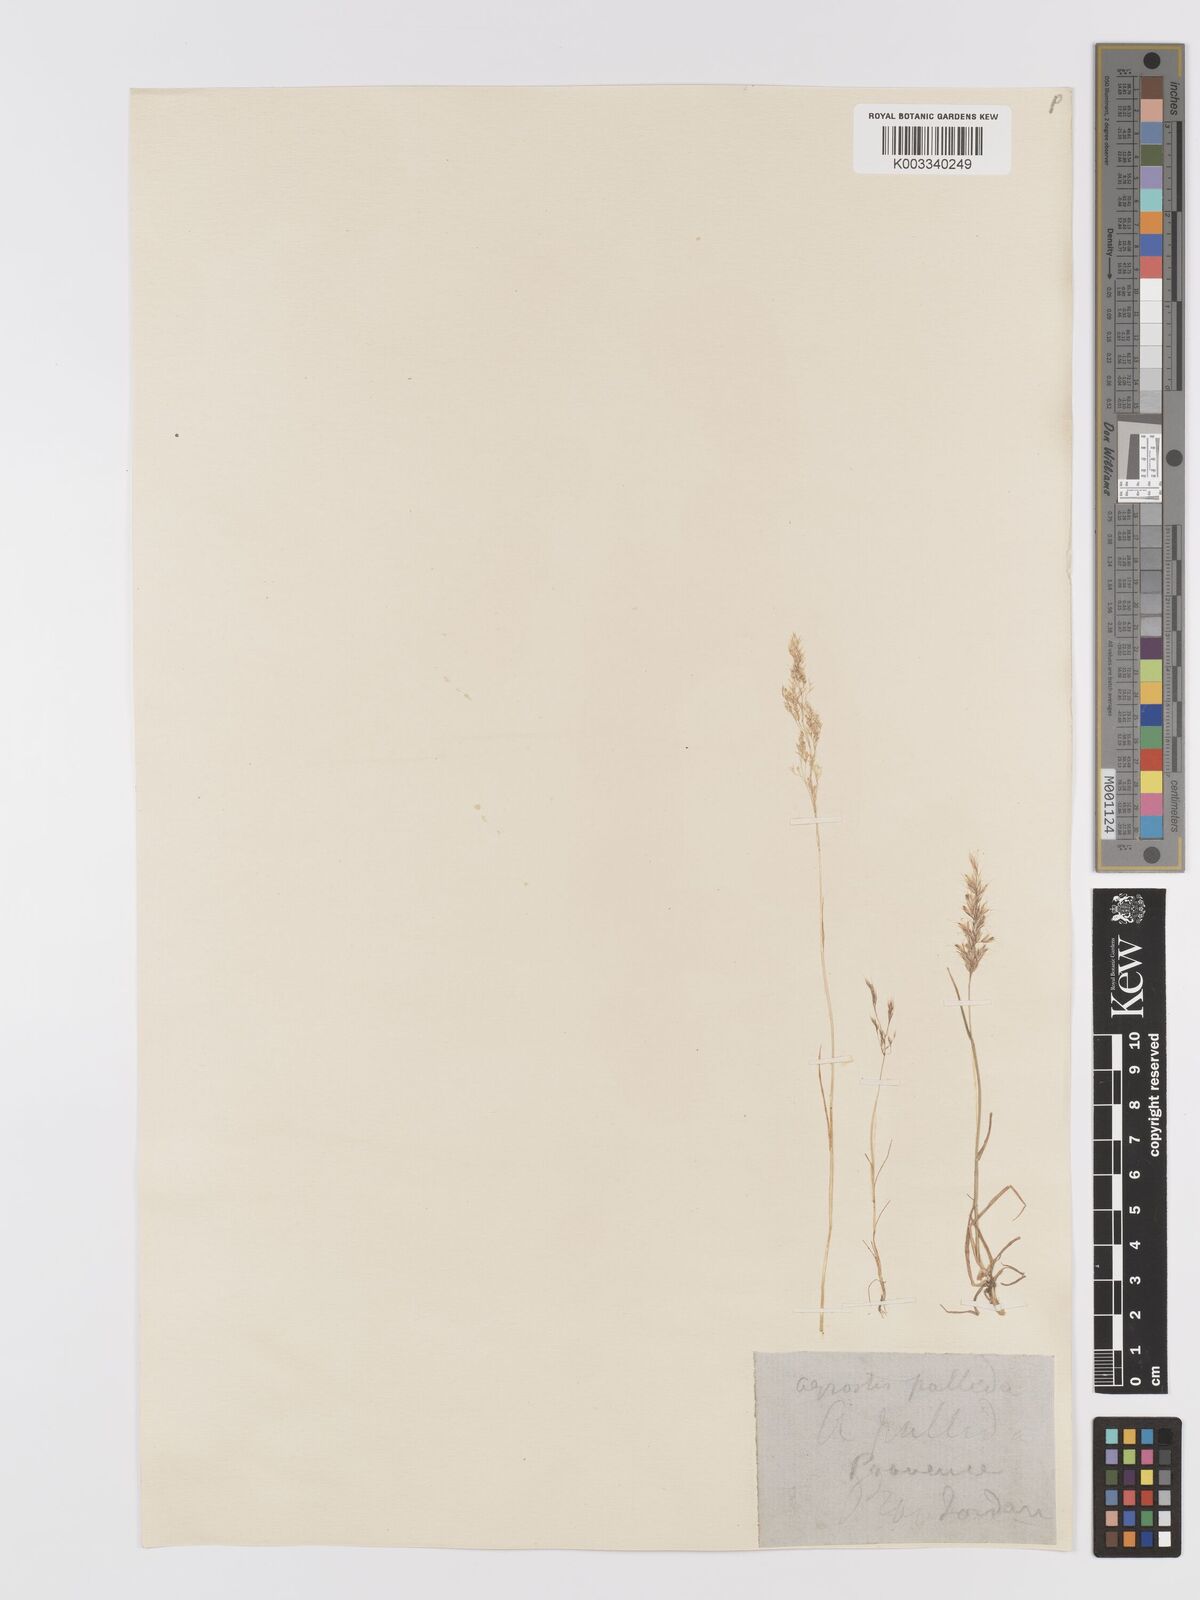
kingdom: Plantae
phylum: Tracheophyta
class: Liliopsida
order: Poales
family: Poaceae
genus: Agrostis
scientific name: Agrostis pourretii
